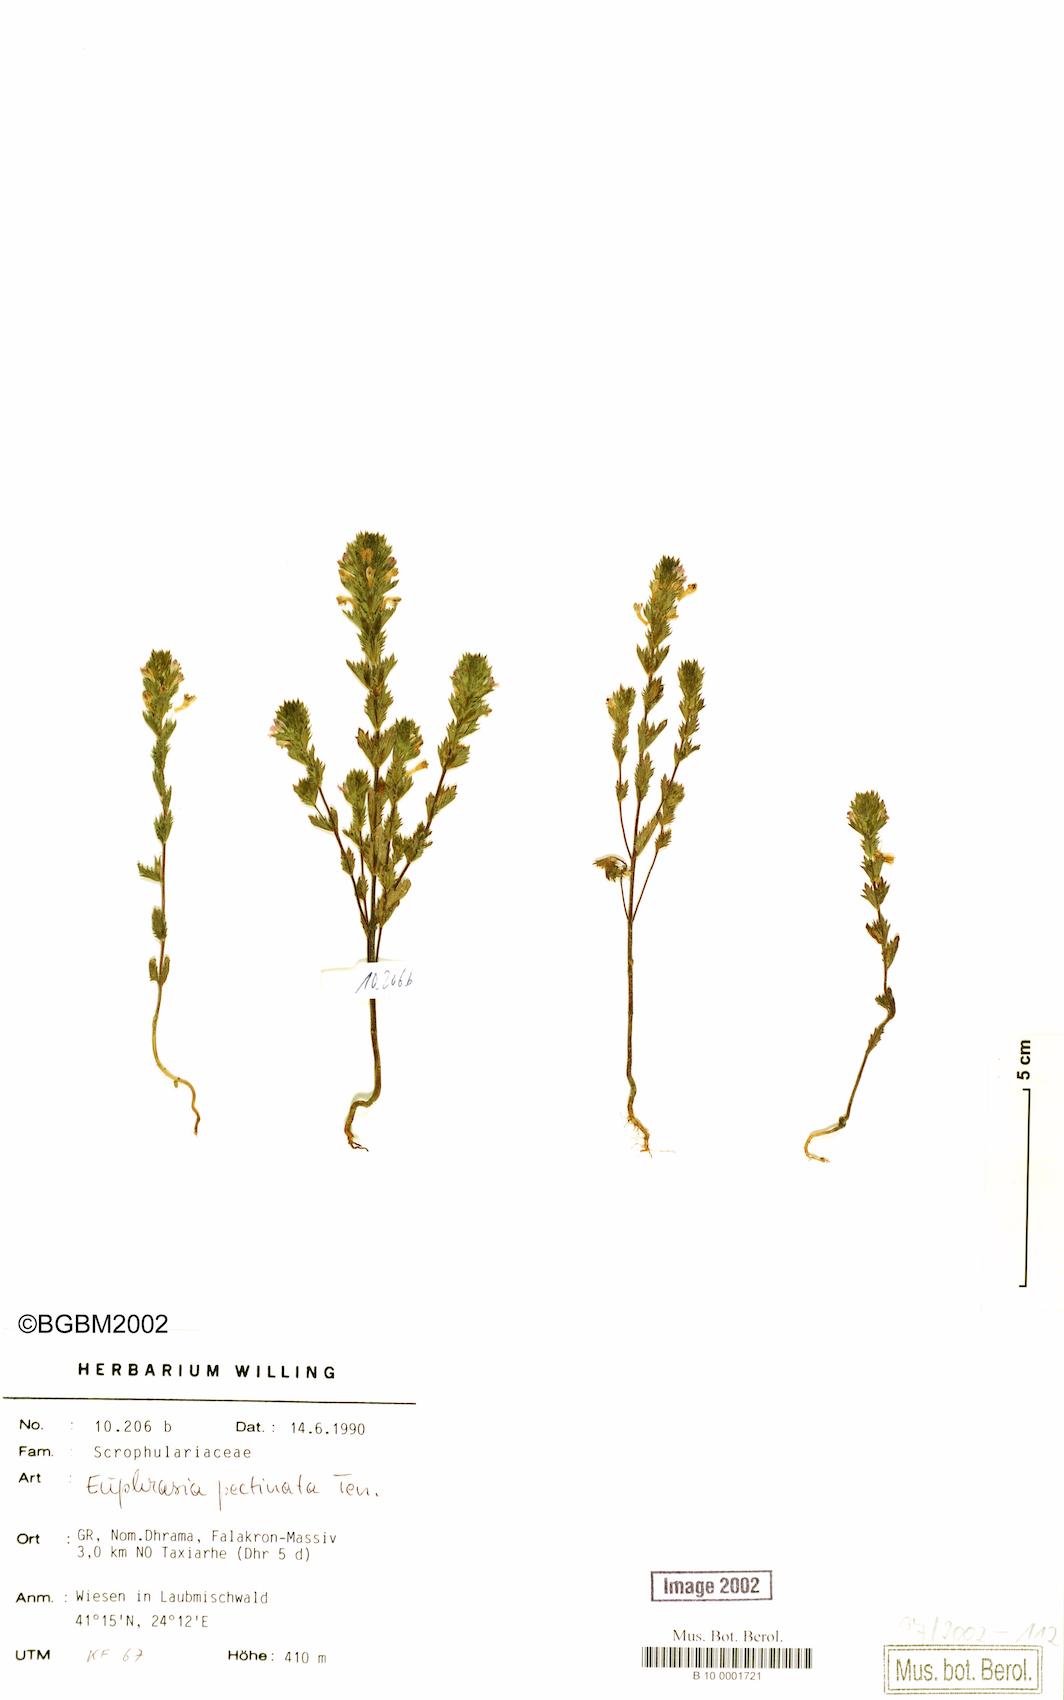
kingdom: Plantae
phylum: Tracheophyta
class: Magnoliopsida
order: Lamiales
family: Orobanchaceae
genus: Euphrasia
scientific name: Euphrasia pectinata
